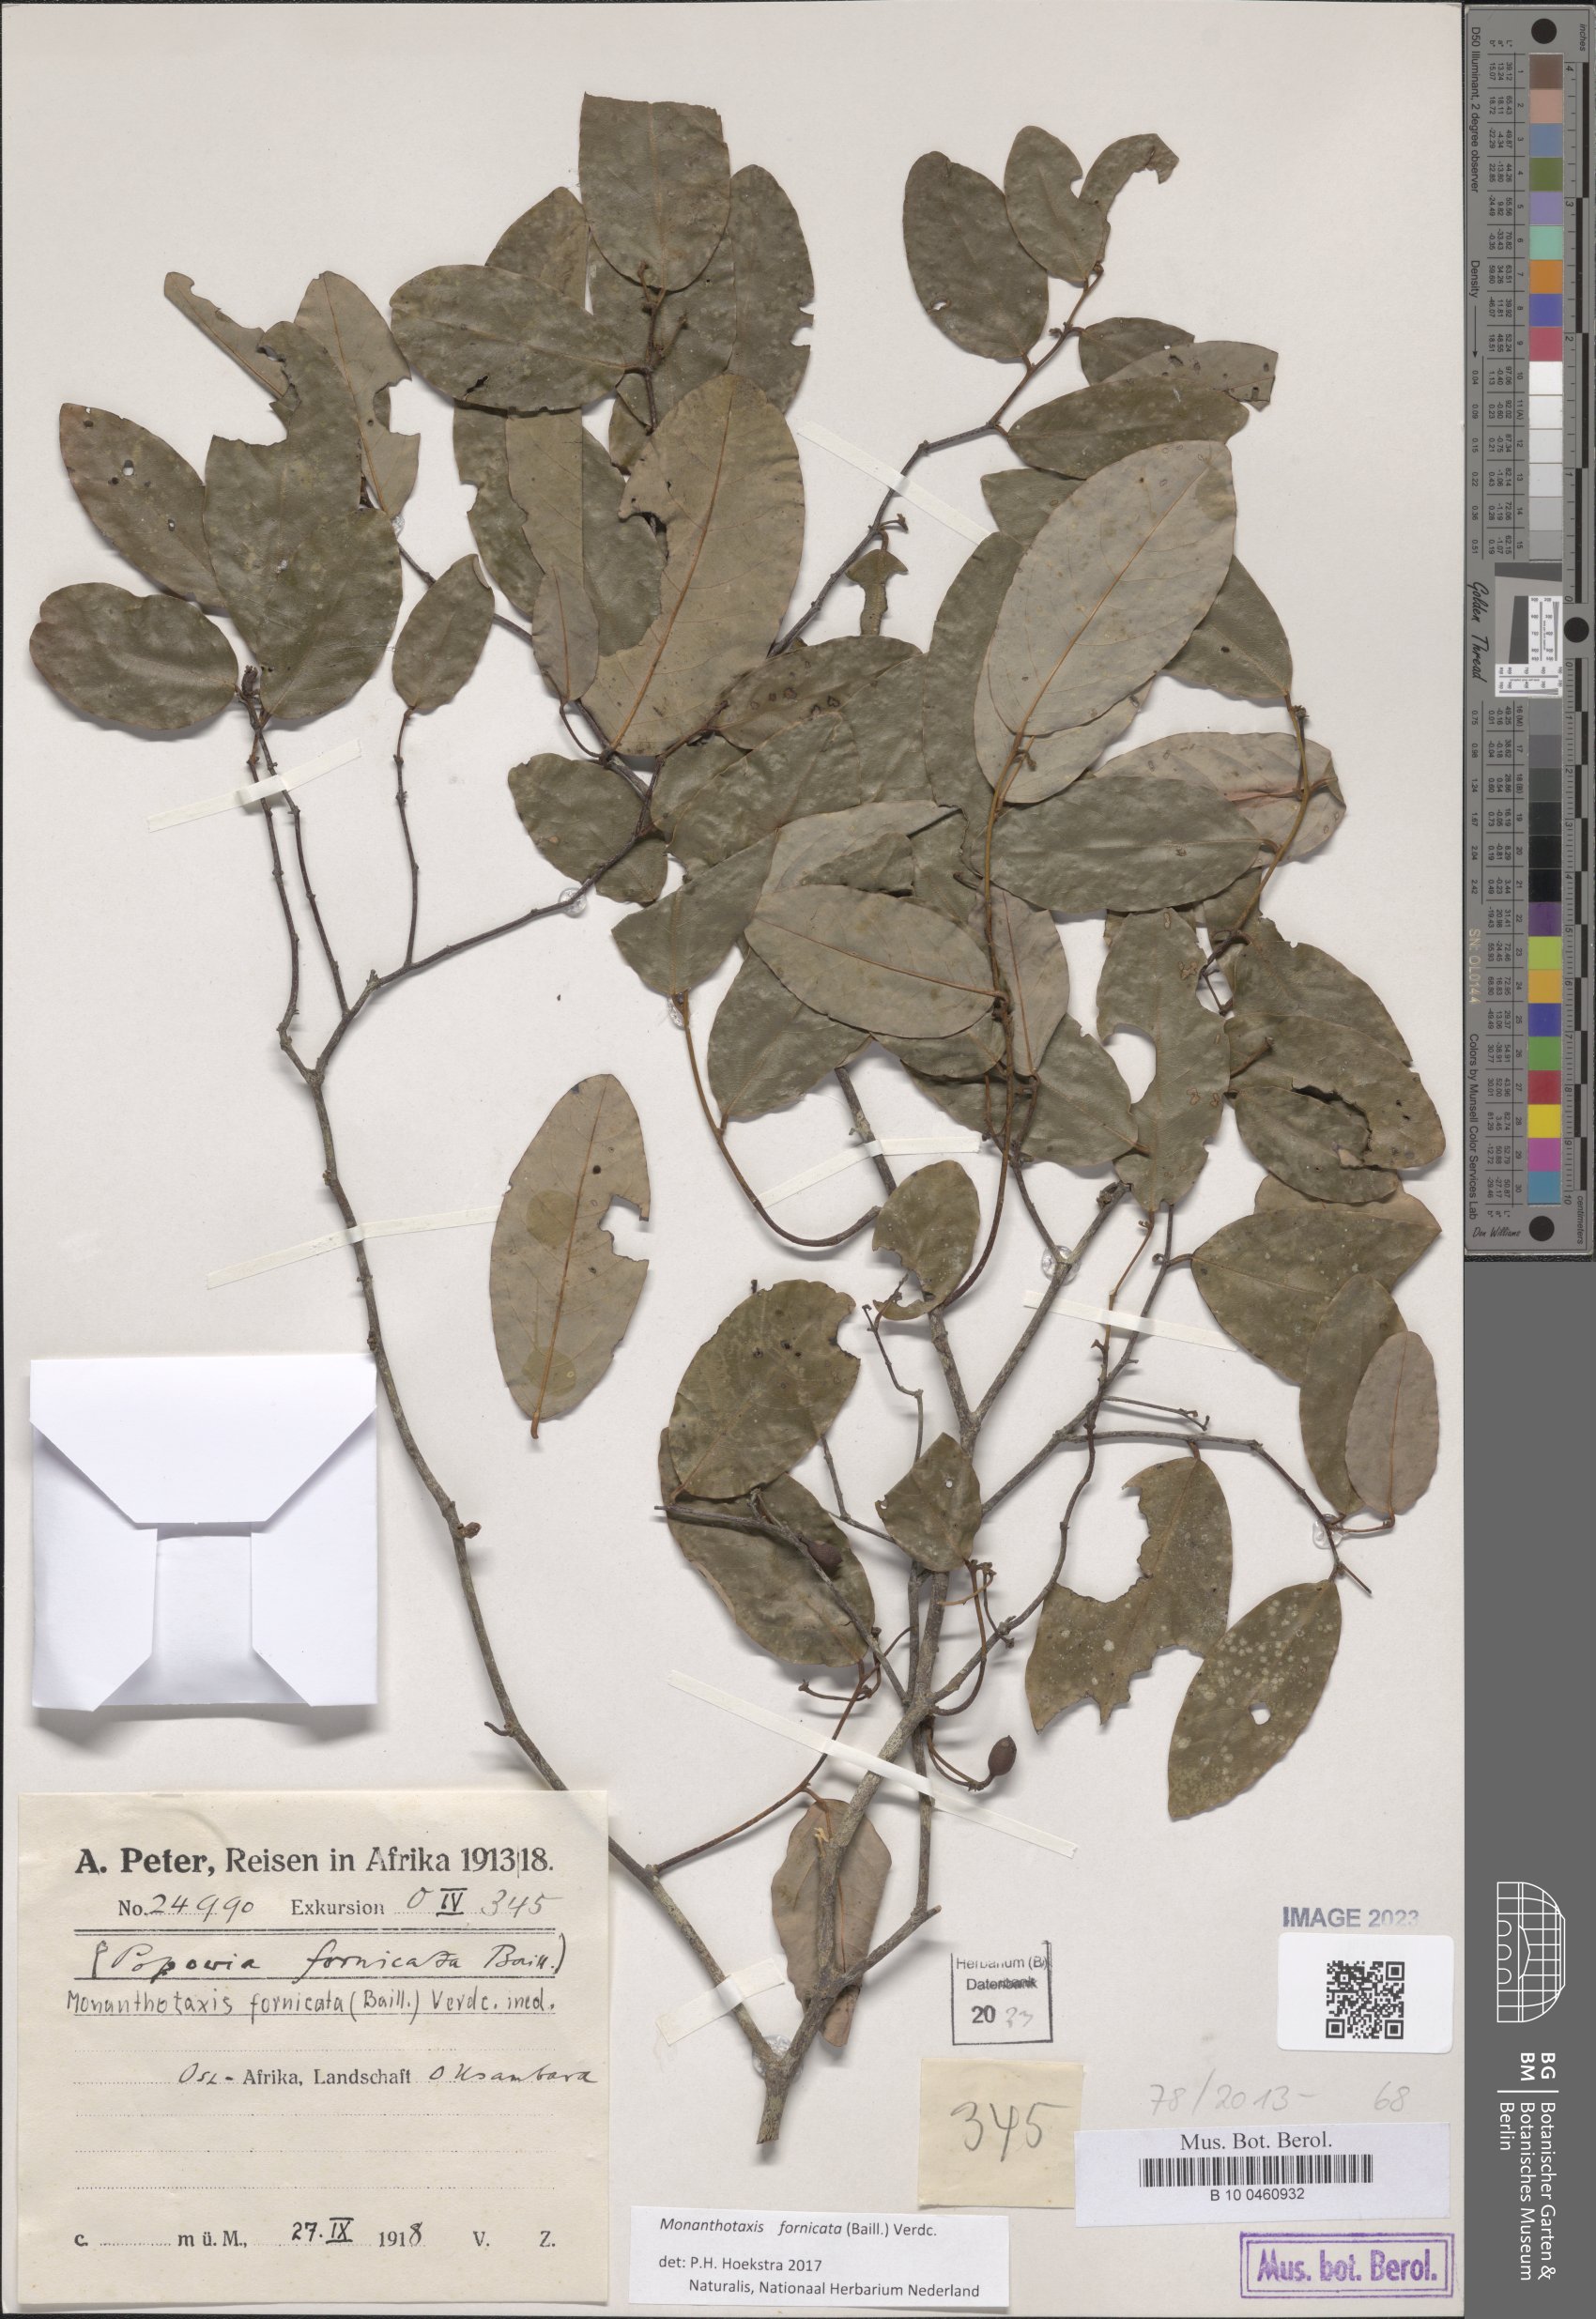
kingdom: Plantae
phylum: Tracheophyta
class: Magnoliopsida
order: Magnoliales
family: Annonaceae
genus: Monanthotaxis
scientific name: Monanthotaxis fornicata
